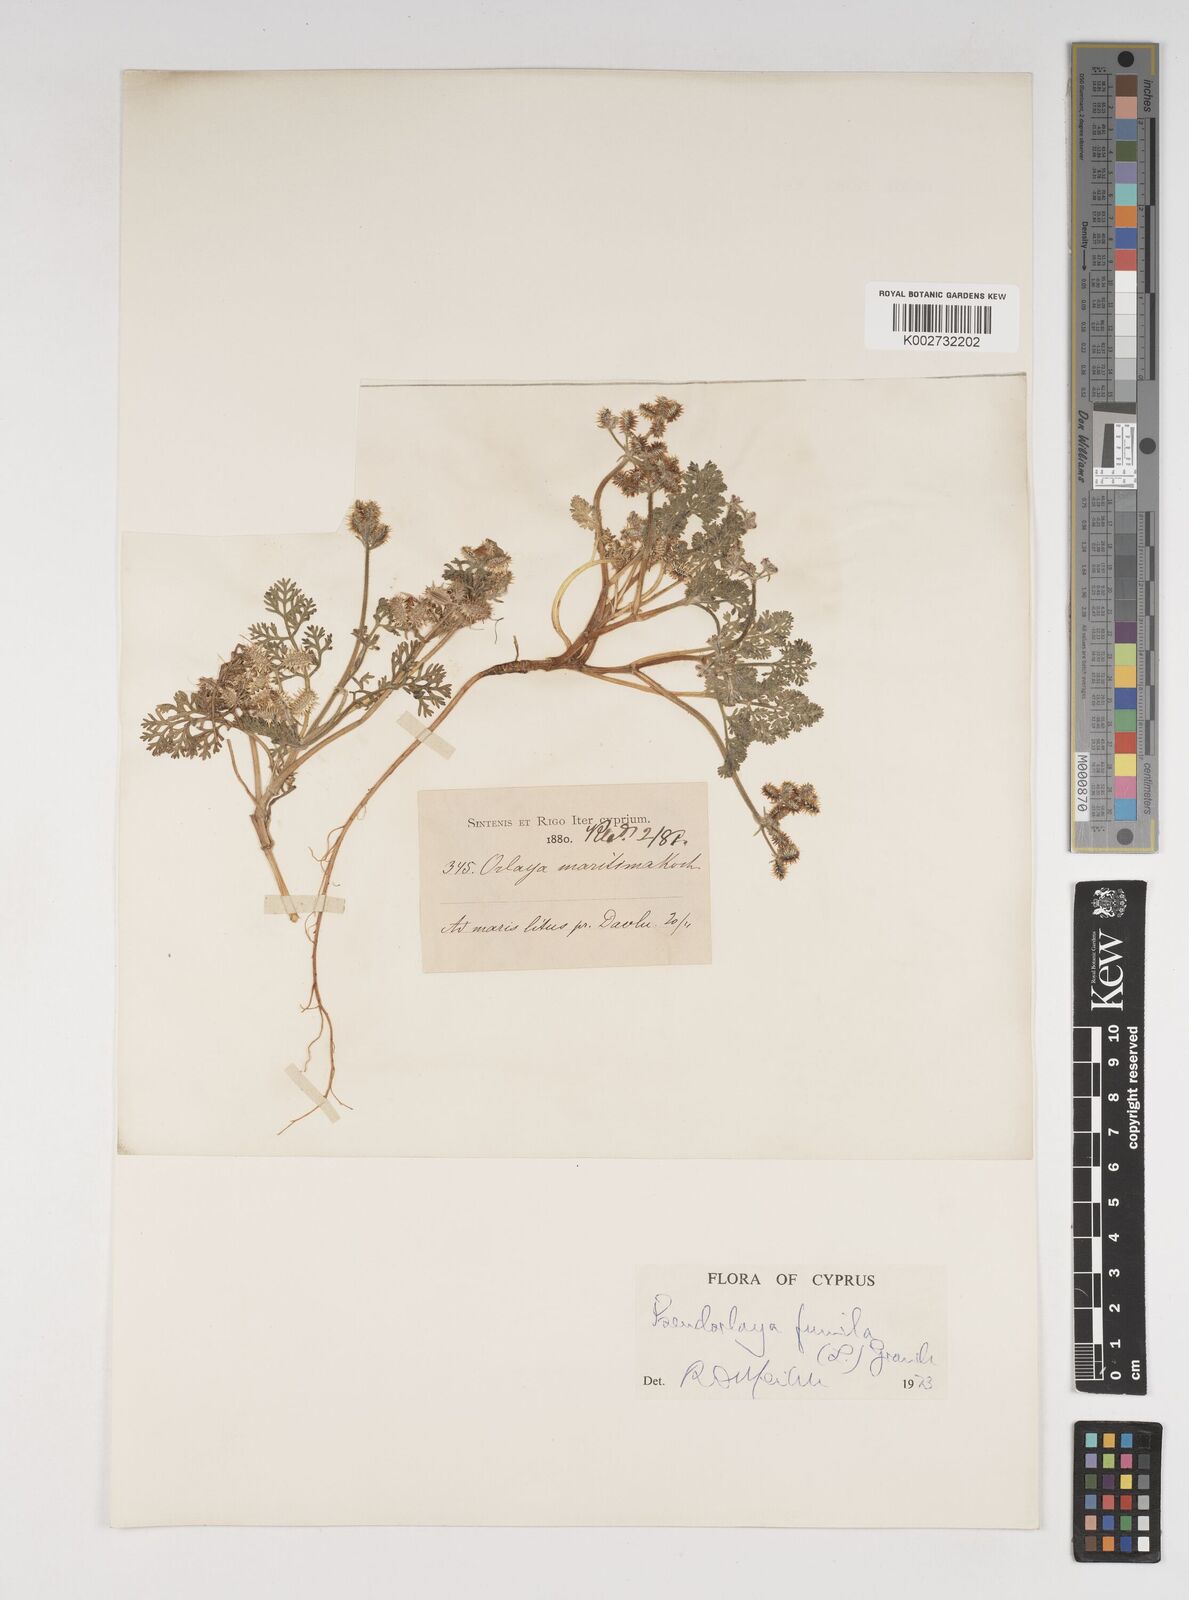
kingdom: Plantae
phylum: Tracheophyta
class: Magnoliopsida
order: Apiales
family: Apiaceae
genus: Daucus
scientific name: Daucus pumilus
